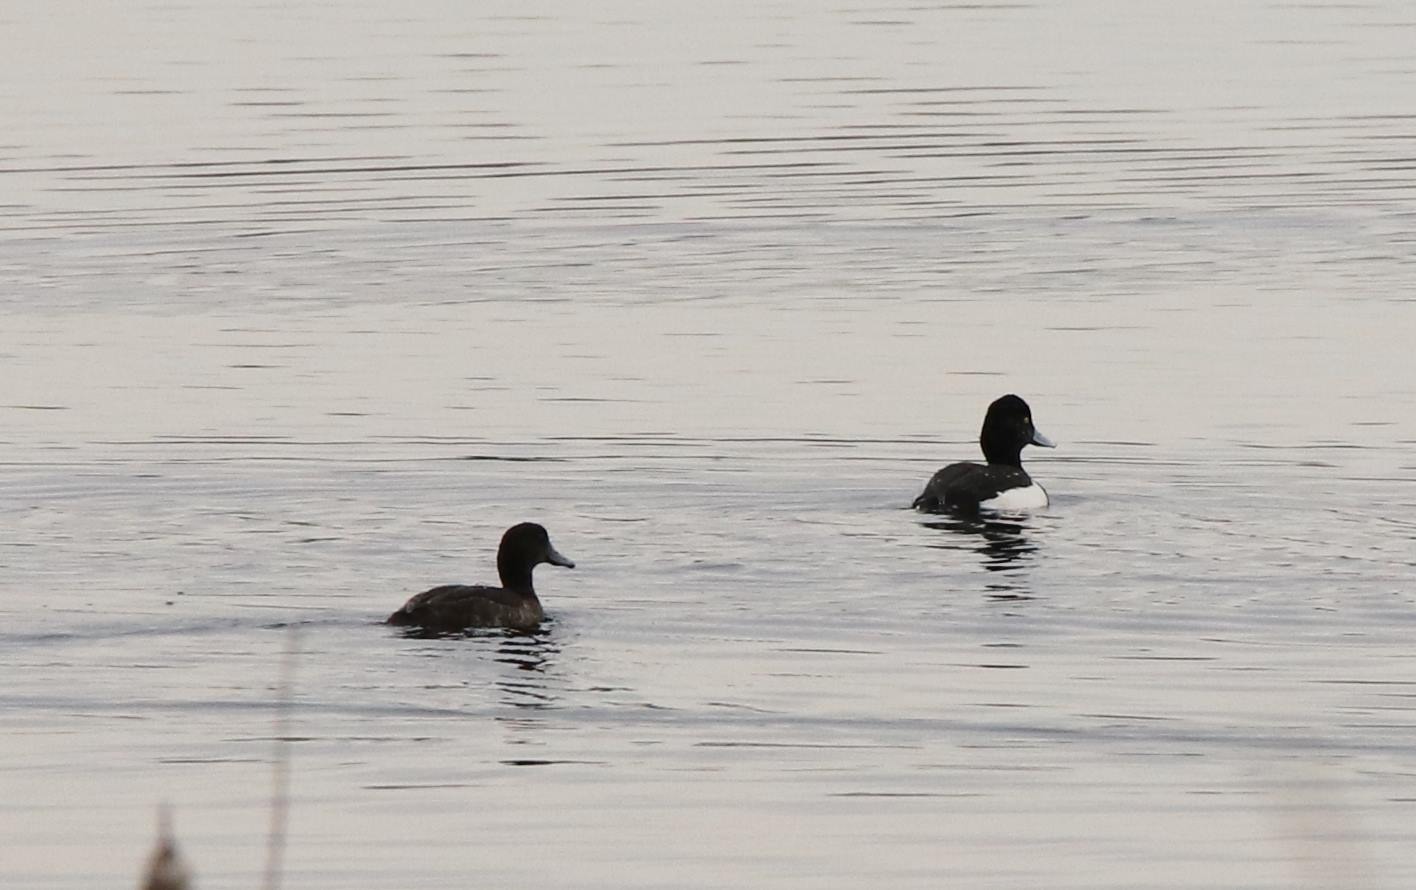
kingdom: Animalia
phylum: Chordata
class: Aves
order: Anseriformes
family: Anatidae
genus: Aythya
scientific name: Aythya fuligula
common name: Troldand
